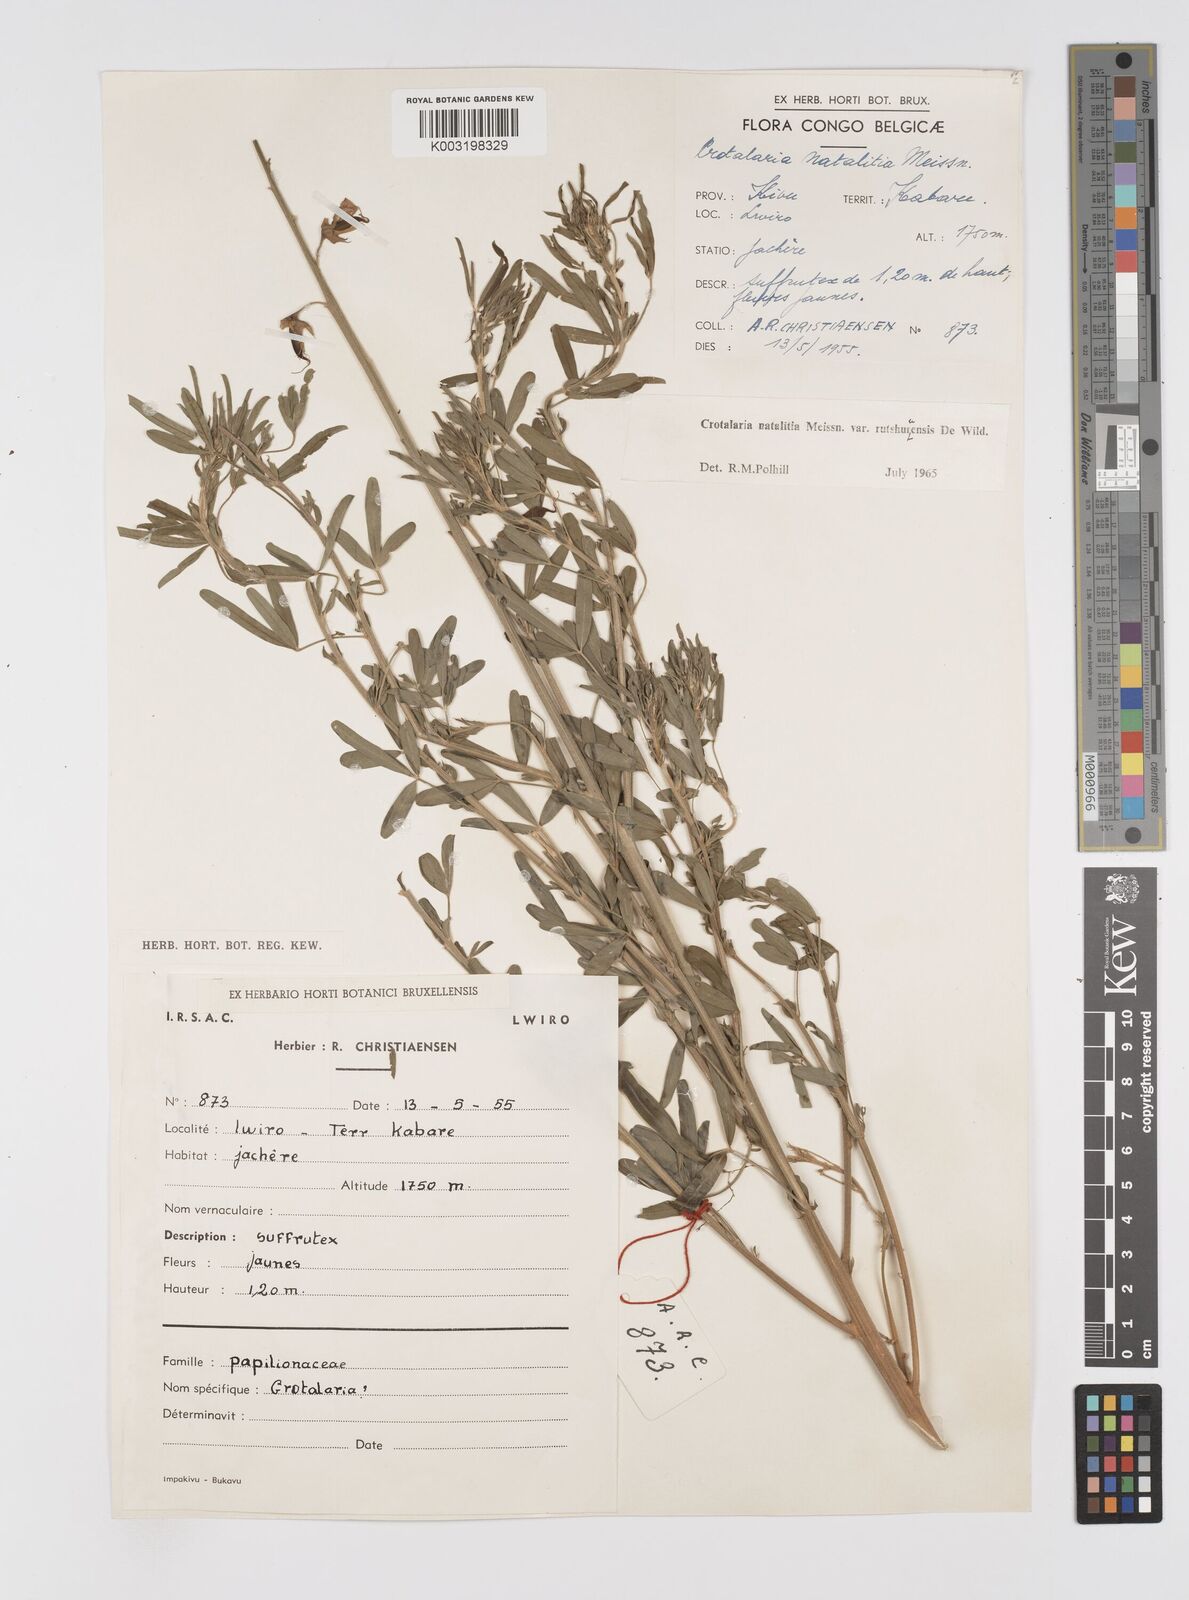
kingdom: Plantae
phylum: Tracheophyta
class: Magnoliopsida
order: Fabales
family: Fabaceae
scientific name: Fabaceae
